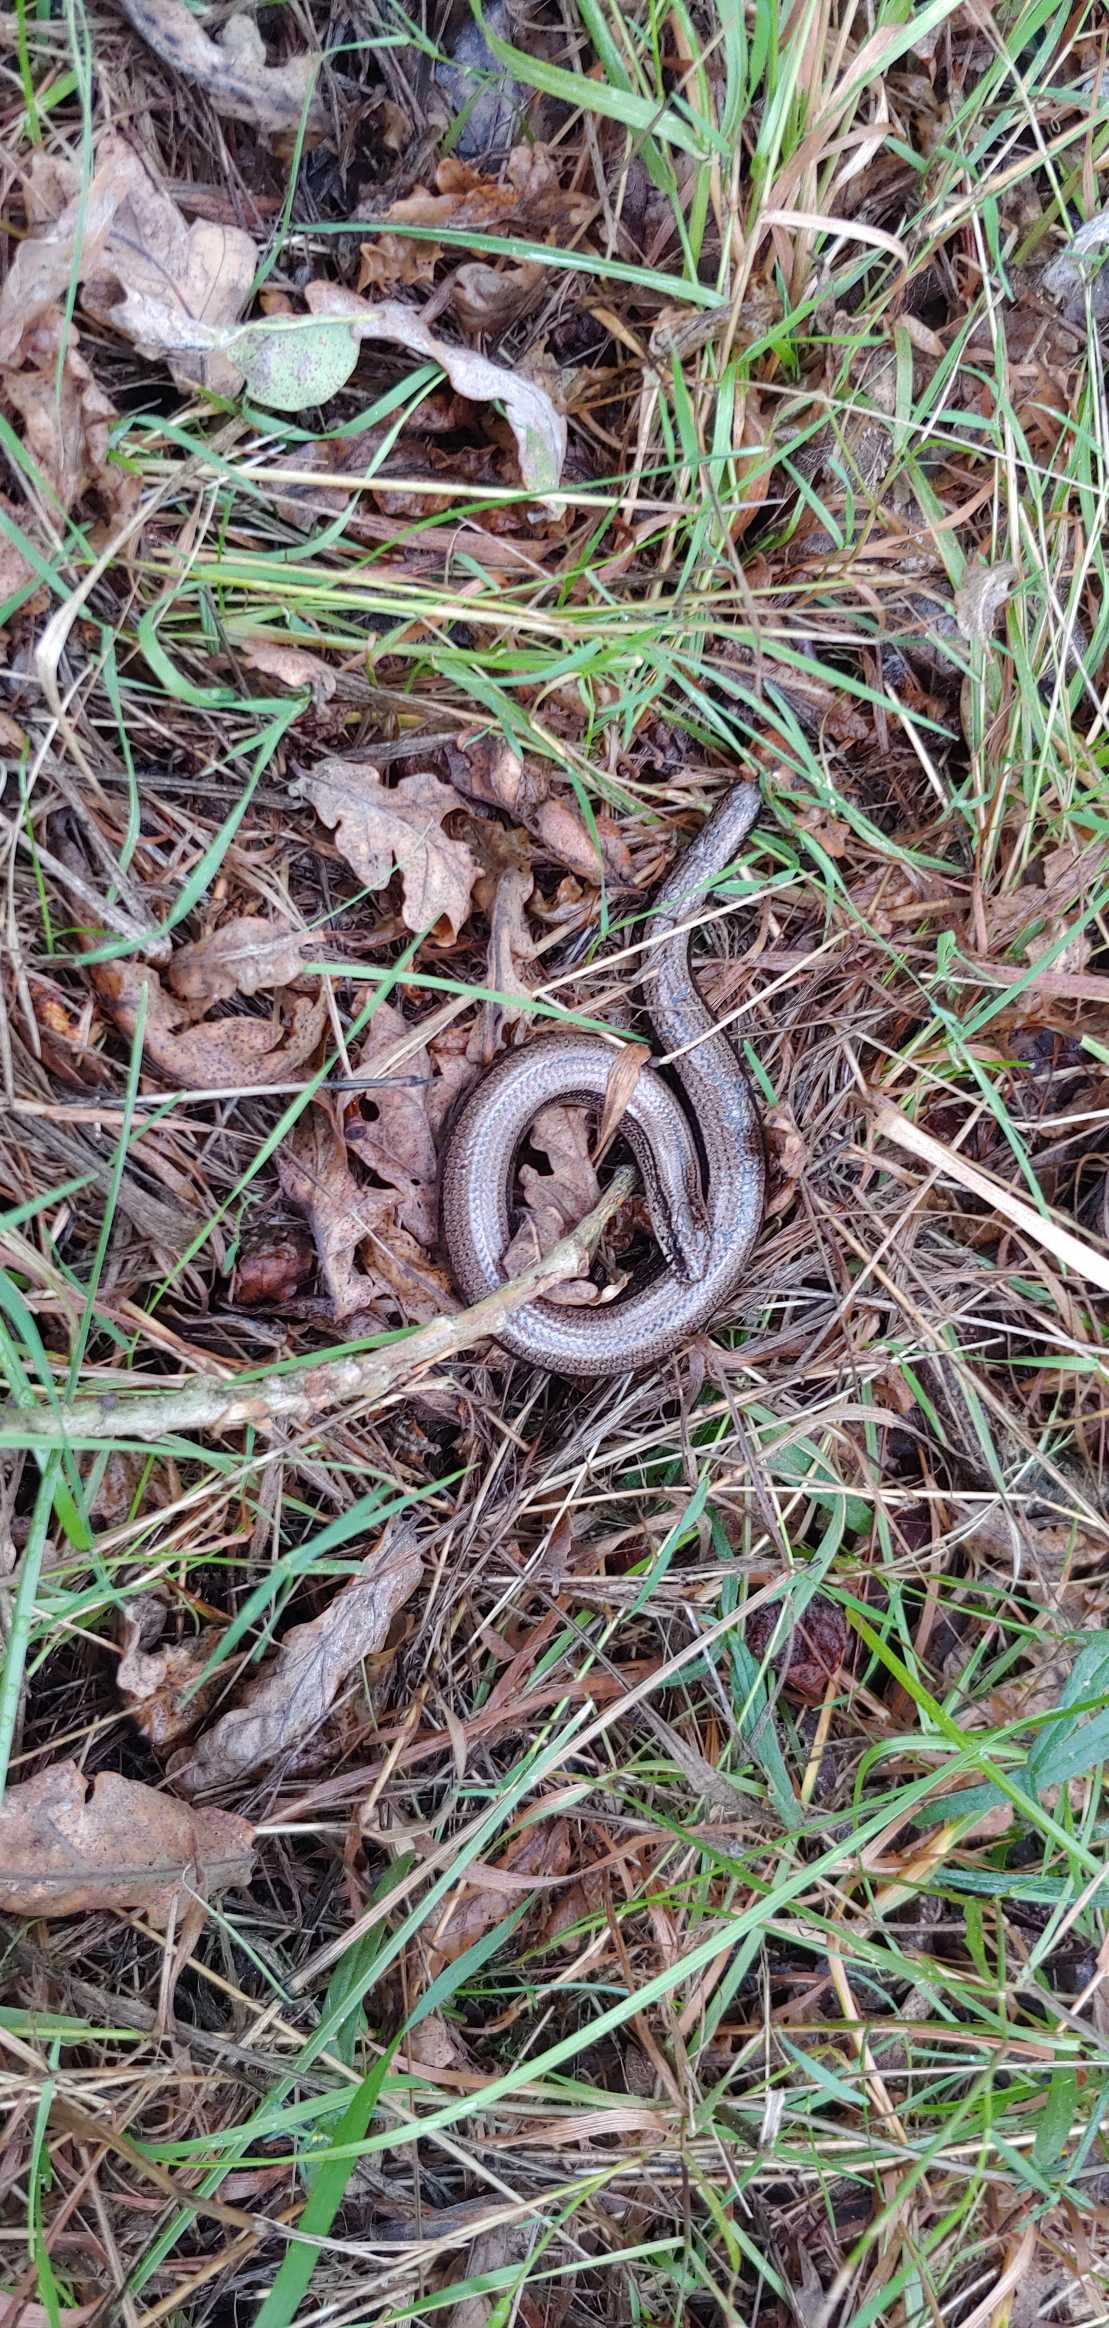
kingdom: Animalia
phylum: Chordata
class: Squamata
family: Anguidae
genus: Anguis
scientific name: Anguis fragilis
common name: Stålorm
